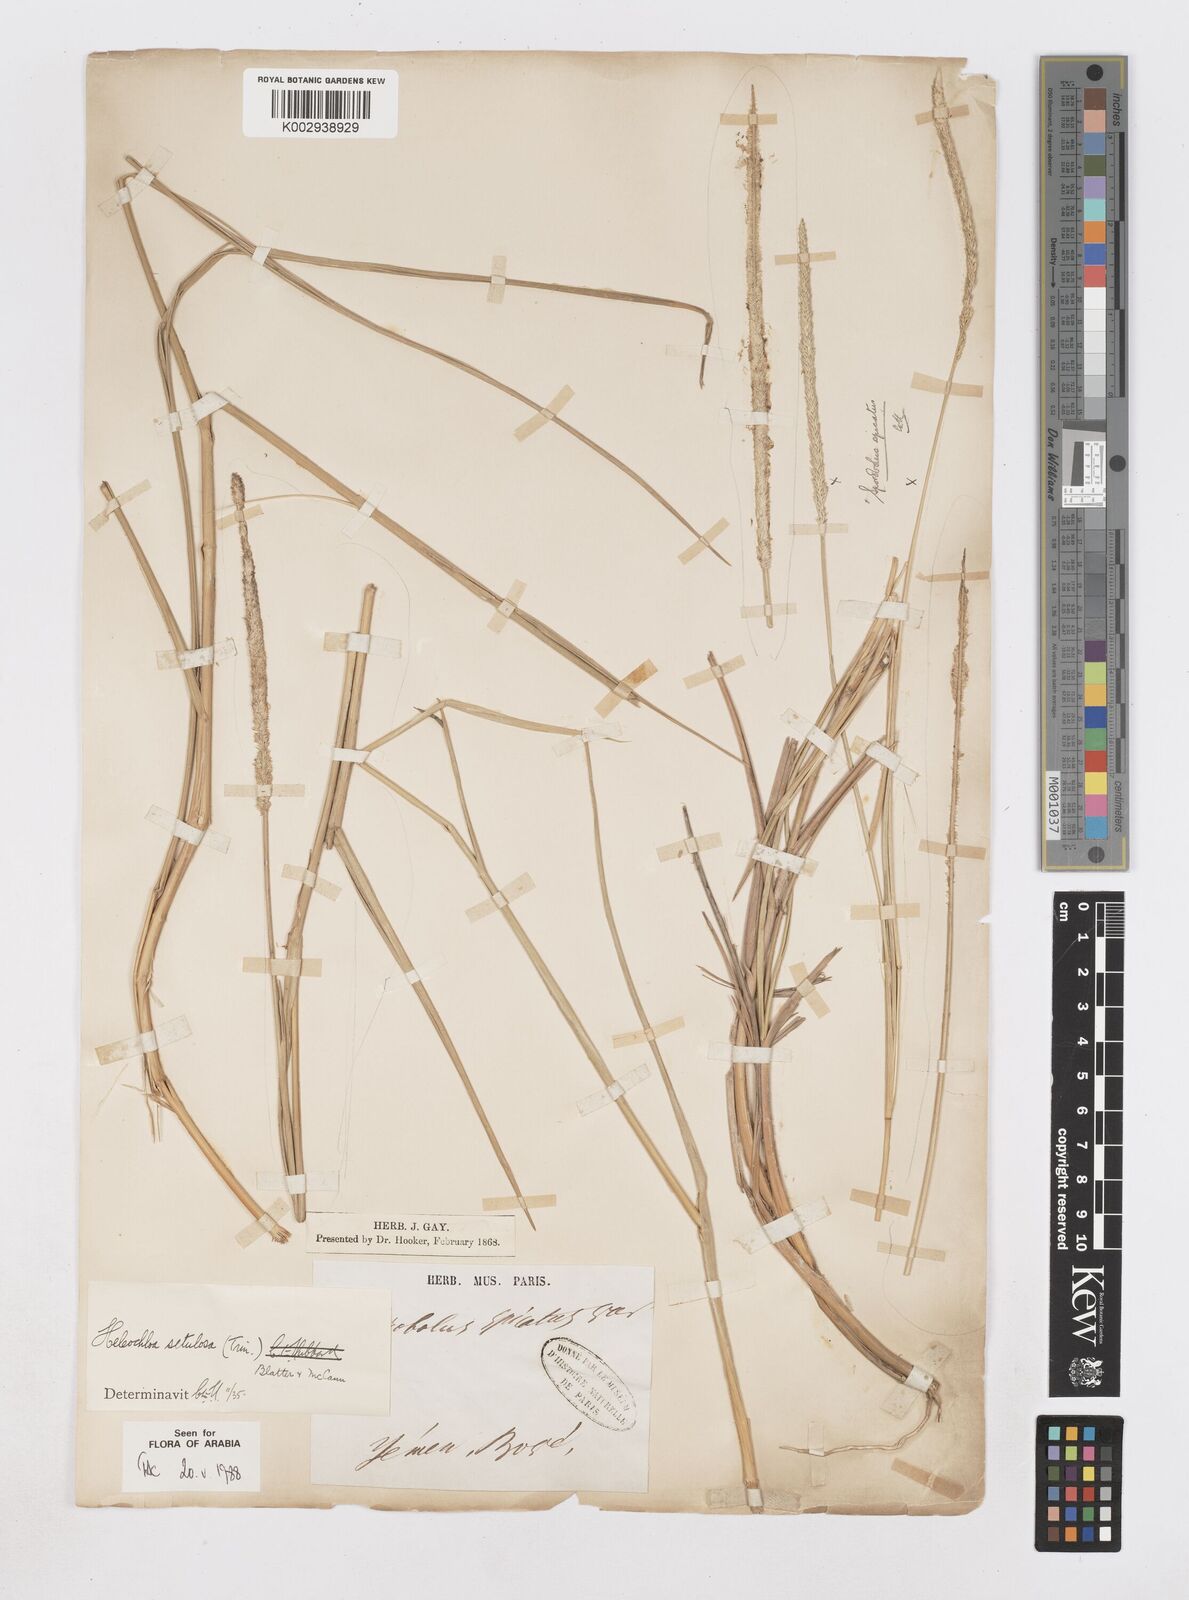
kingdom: Plantae
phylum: Tracheophyta
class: Liliopsida
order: Poales
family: Poaceae
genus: Urochondra
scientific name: Urochondra setulosa
